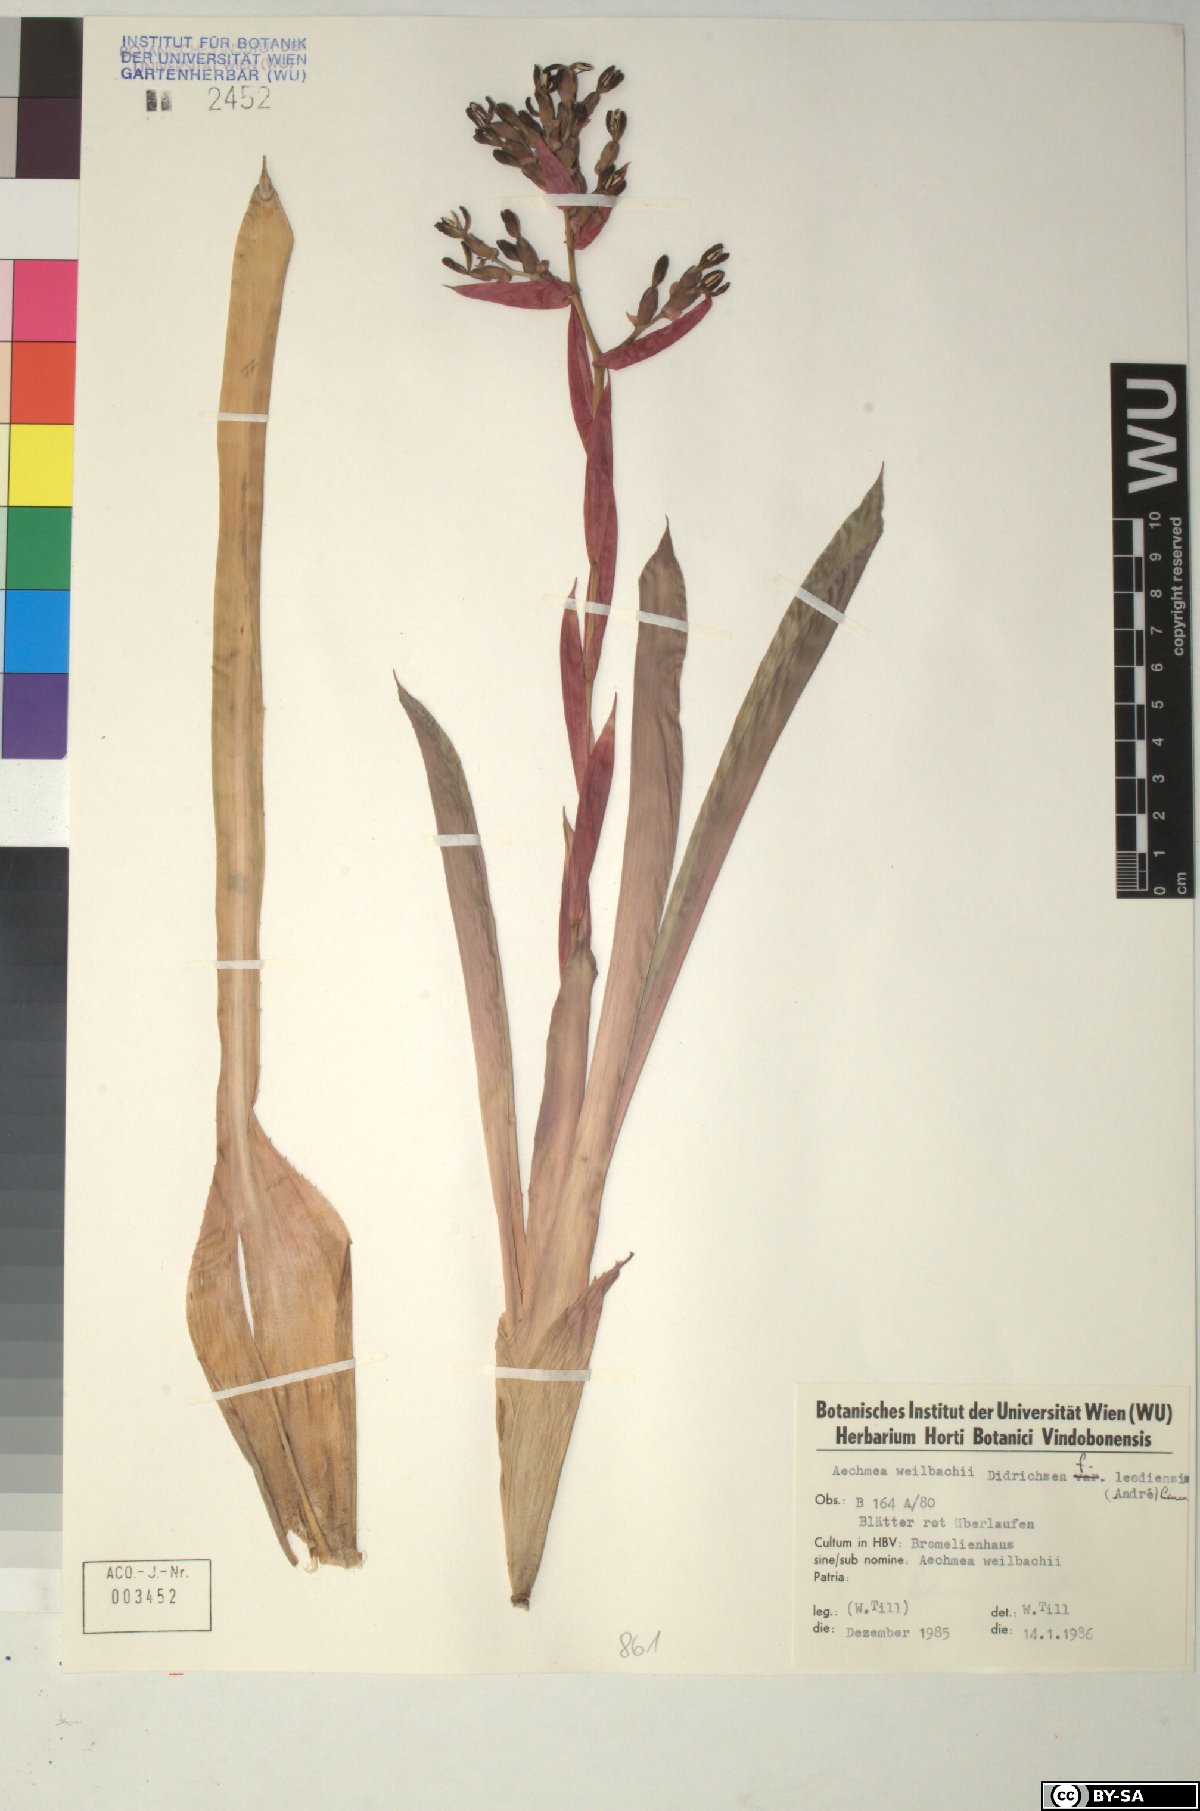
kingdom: Plantae
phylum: Tracheophyta
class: Liliopsida
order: Poales
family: Bromeliaceae
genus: Aechmea
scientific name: Aechmea
